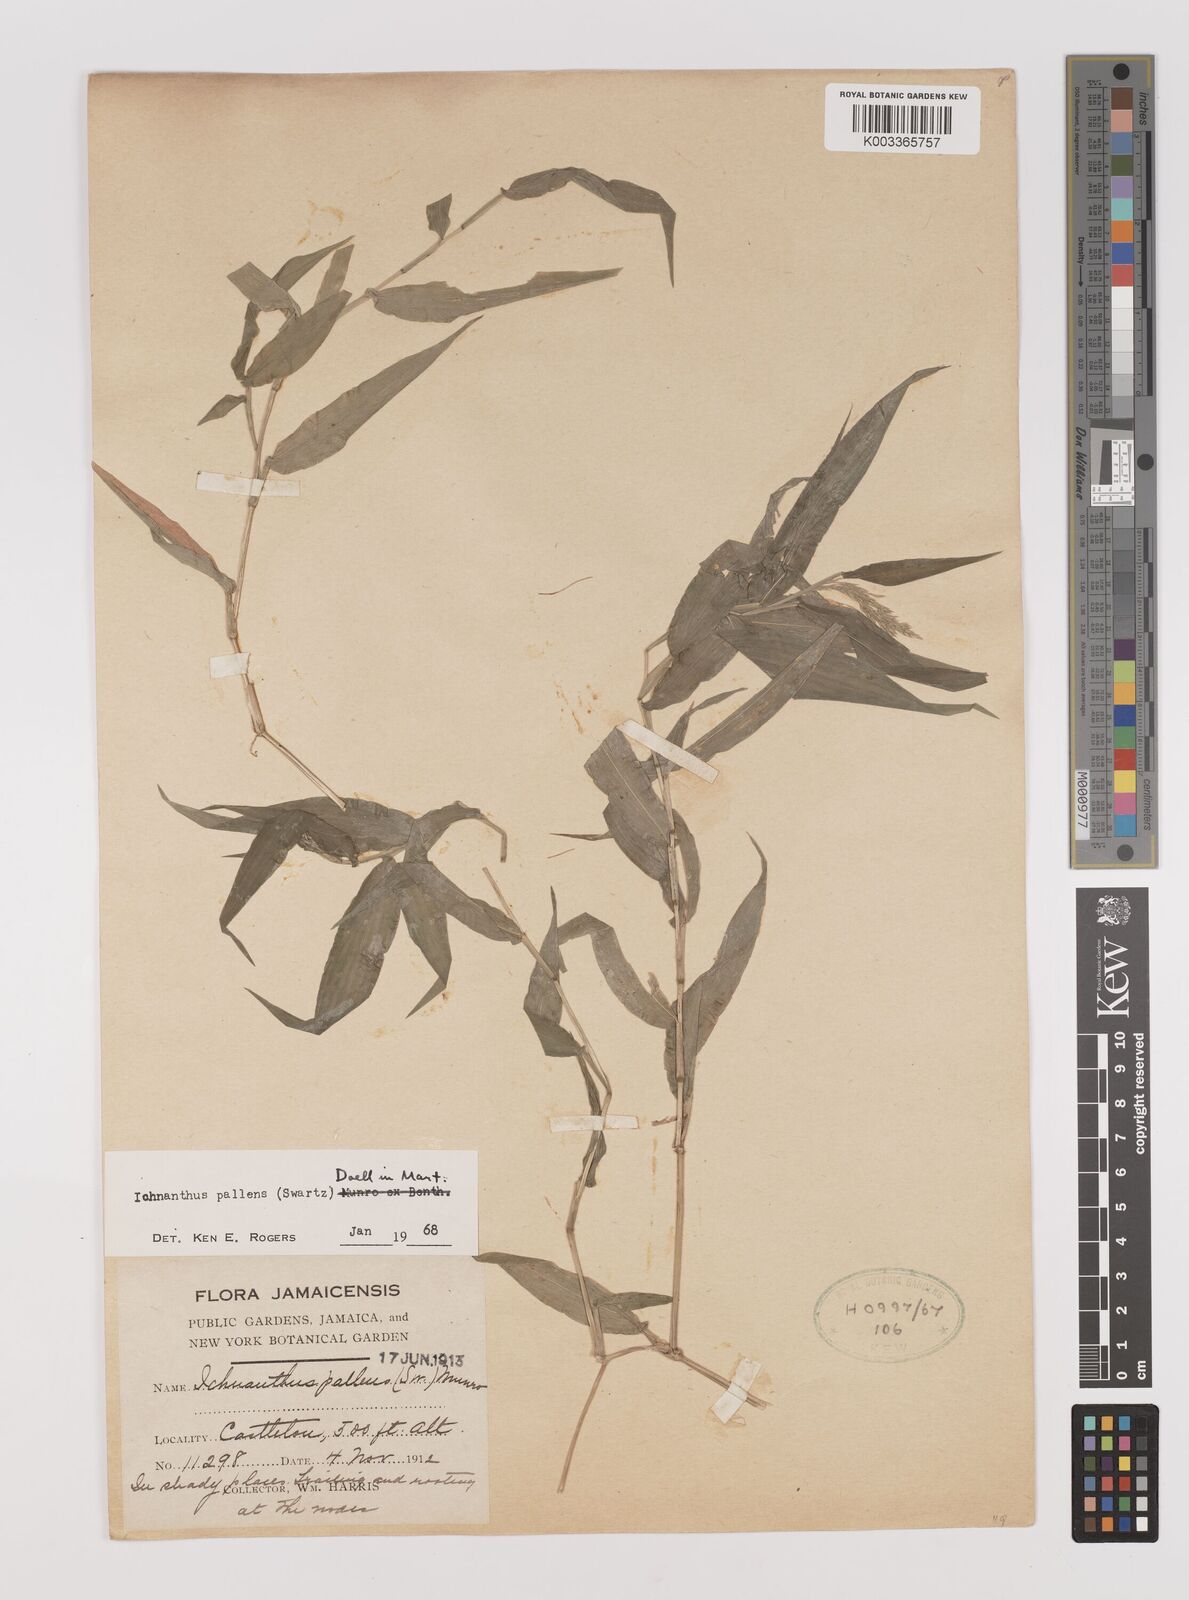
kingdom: Plantae
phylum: Tracheophyta
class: Liliopsida
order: Poales
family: Poaceae
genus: Ichnanthus
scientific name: Ichnanthus pallens
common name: Water grass
